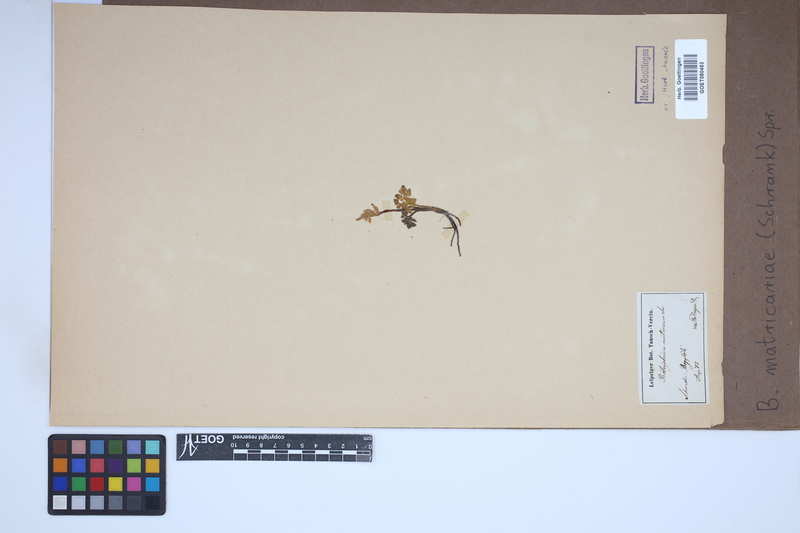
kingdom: Plantae
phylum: Tracheophyta
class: Polypodiopsida
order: Ophioglossales
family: Ophioglossaceae
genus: Sceptridium
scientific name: Sceptridium multifidum
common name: Leathery grape fern
